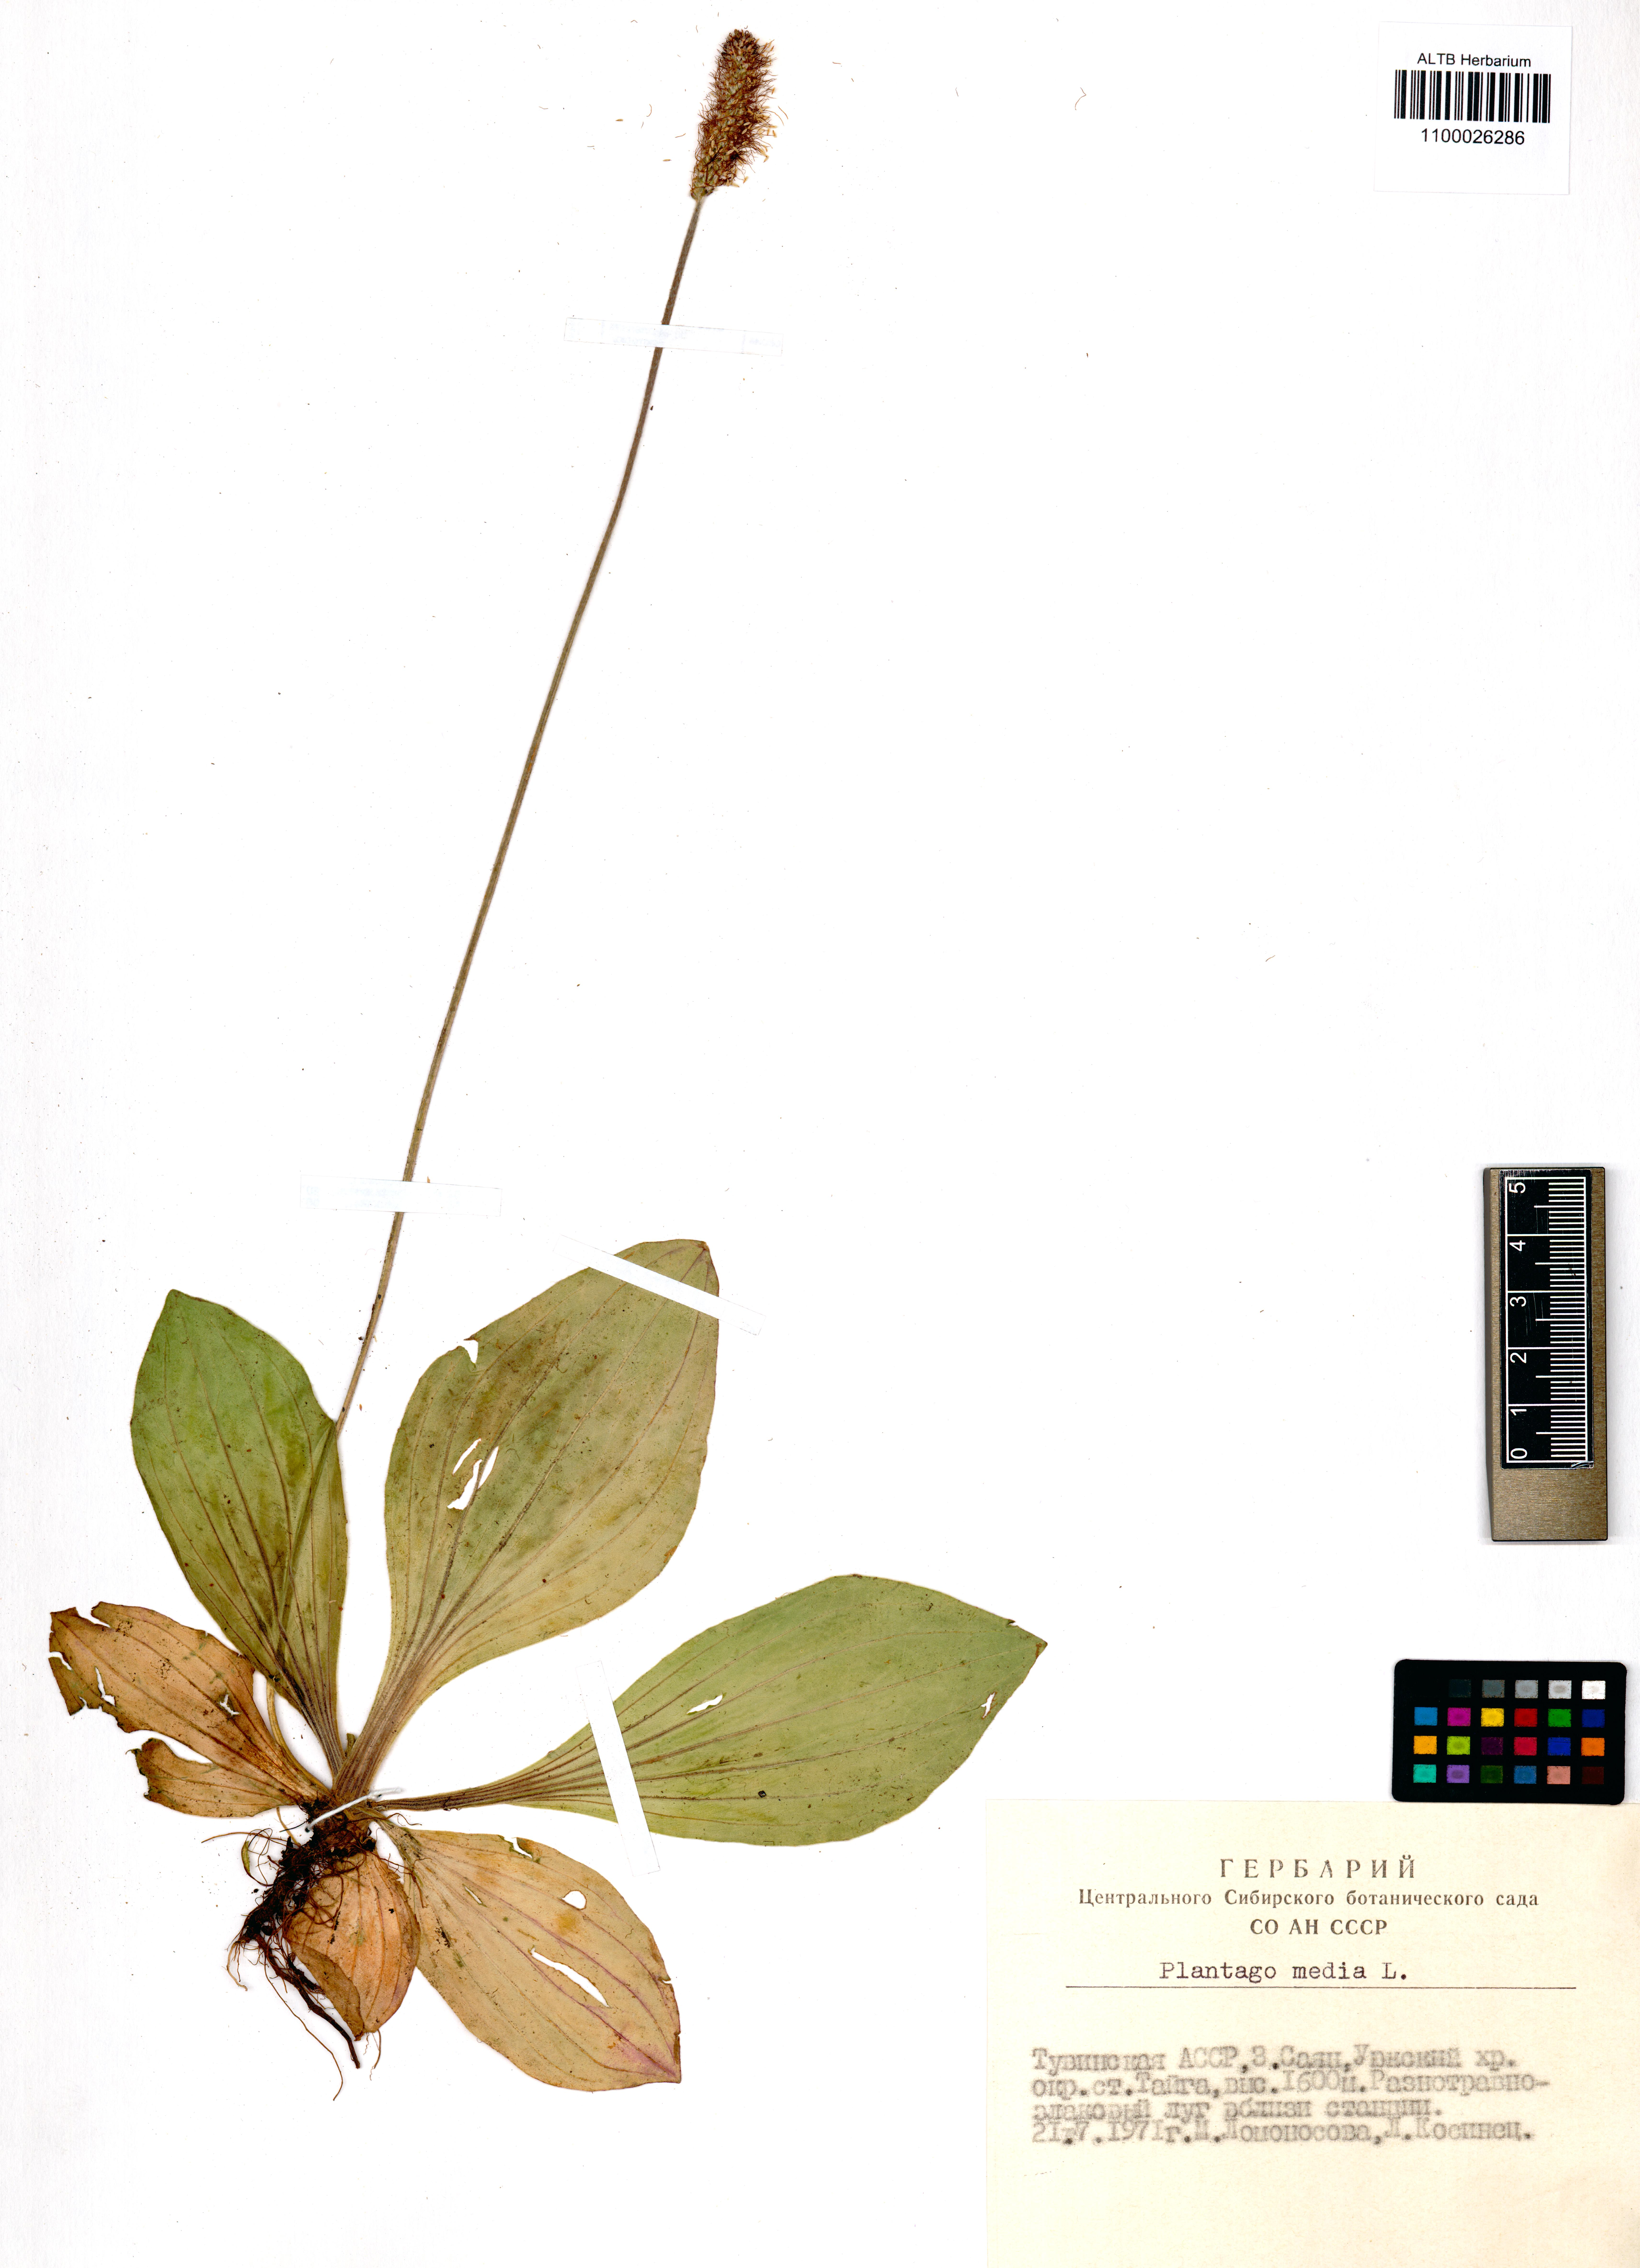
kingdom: Plantae
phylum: Tracheophyta
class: Magnoliopsida
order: Lamiales
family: Plantaginaceae
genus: Plantago
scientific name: Plantago media
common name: Hoary plantain
